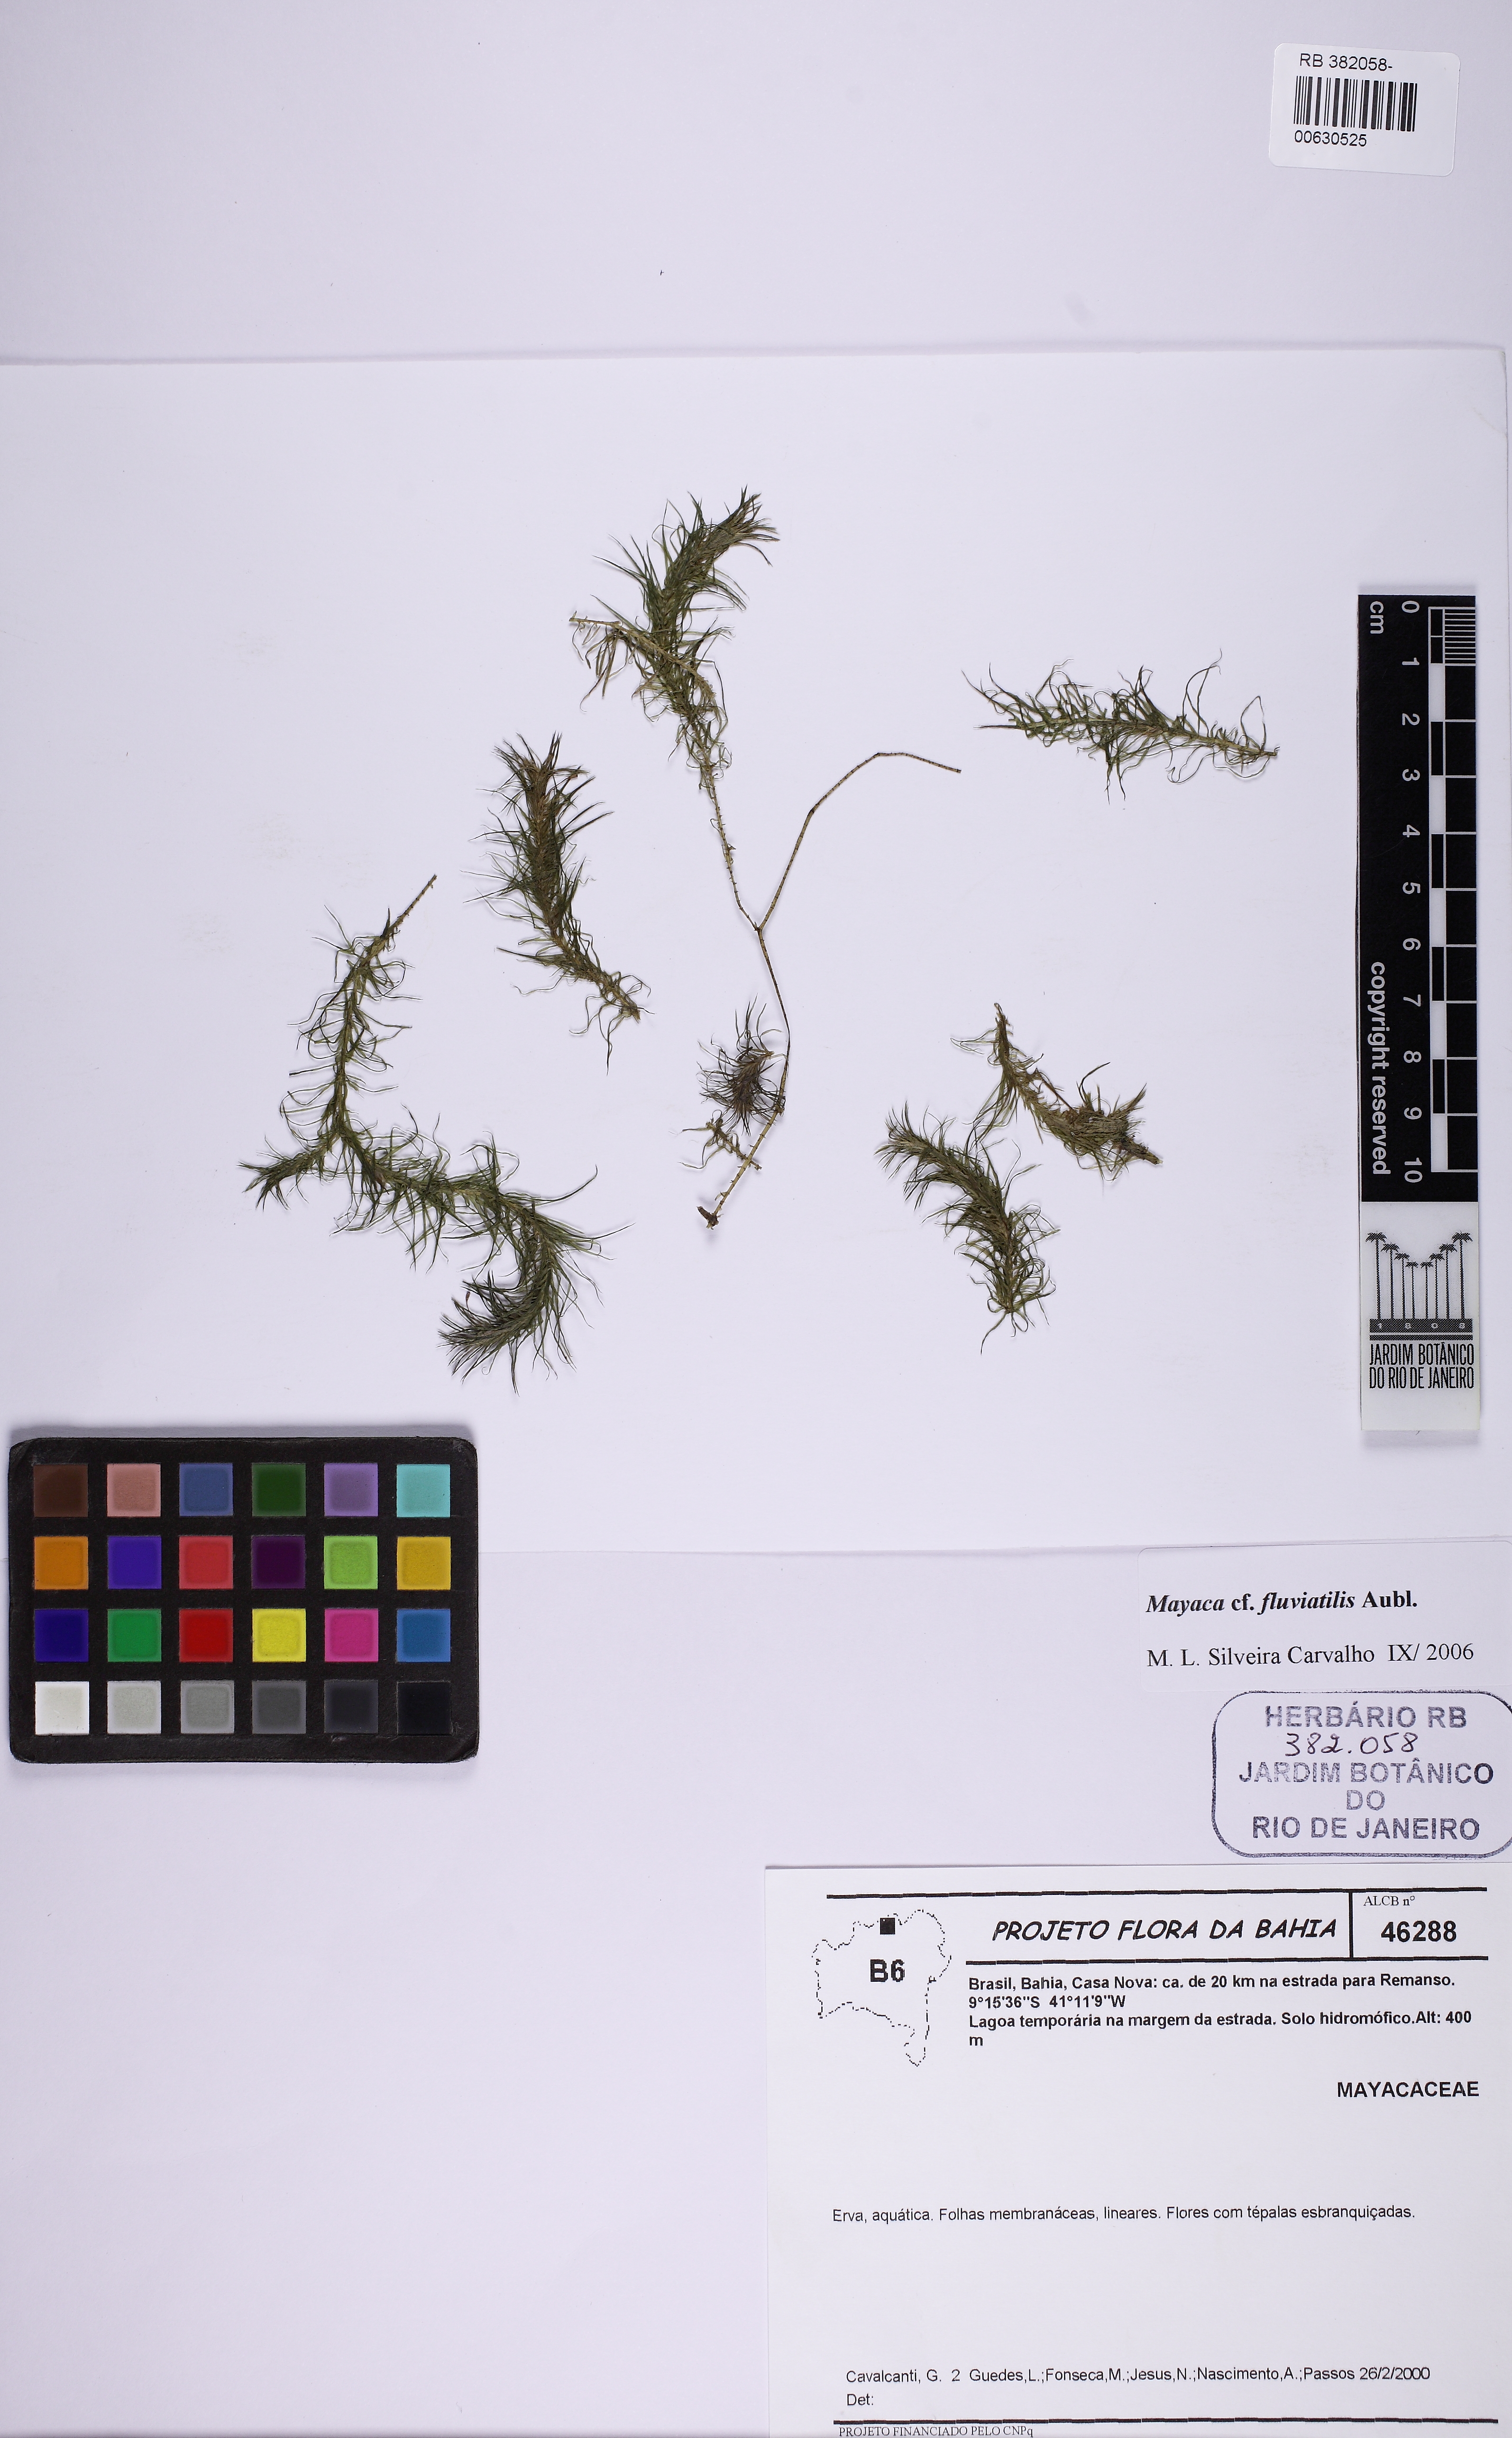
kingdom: Plantae
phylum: Tracheophyta
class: Liliopsida
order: Poales
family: Mayacaceae
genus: Mayaca
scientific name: Mayaca fluviatilis
